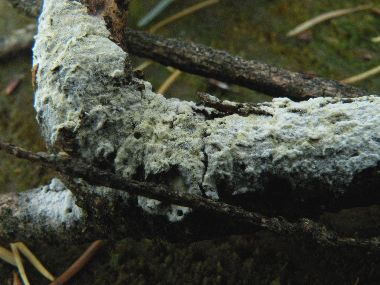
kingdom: Fungi
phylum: Basidiomycota
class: Agaricomycetes
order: Cantharellales
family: Botryobasidiaceae
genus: Botryobasidium
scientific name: Botryobasidium vagum
